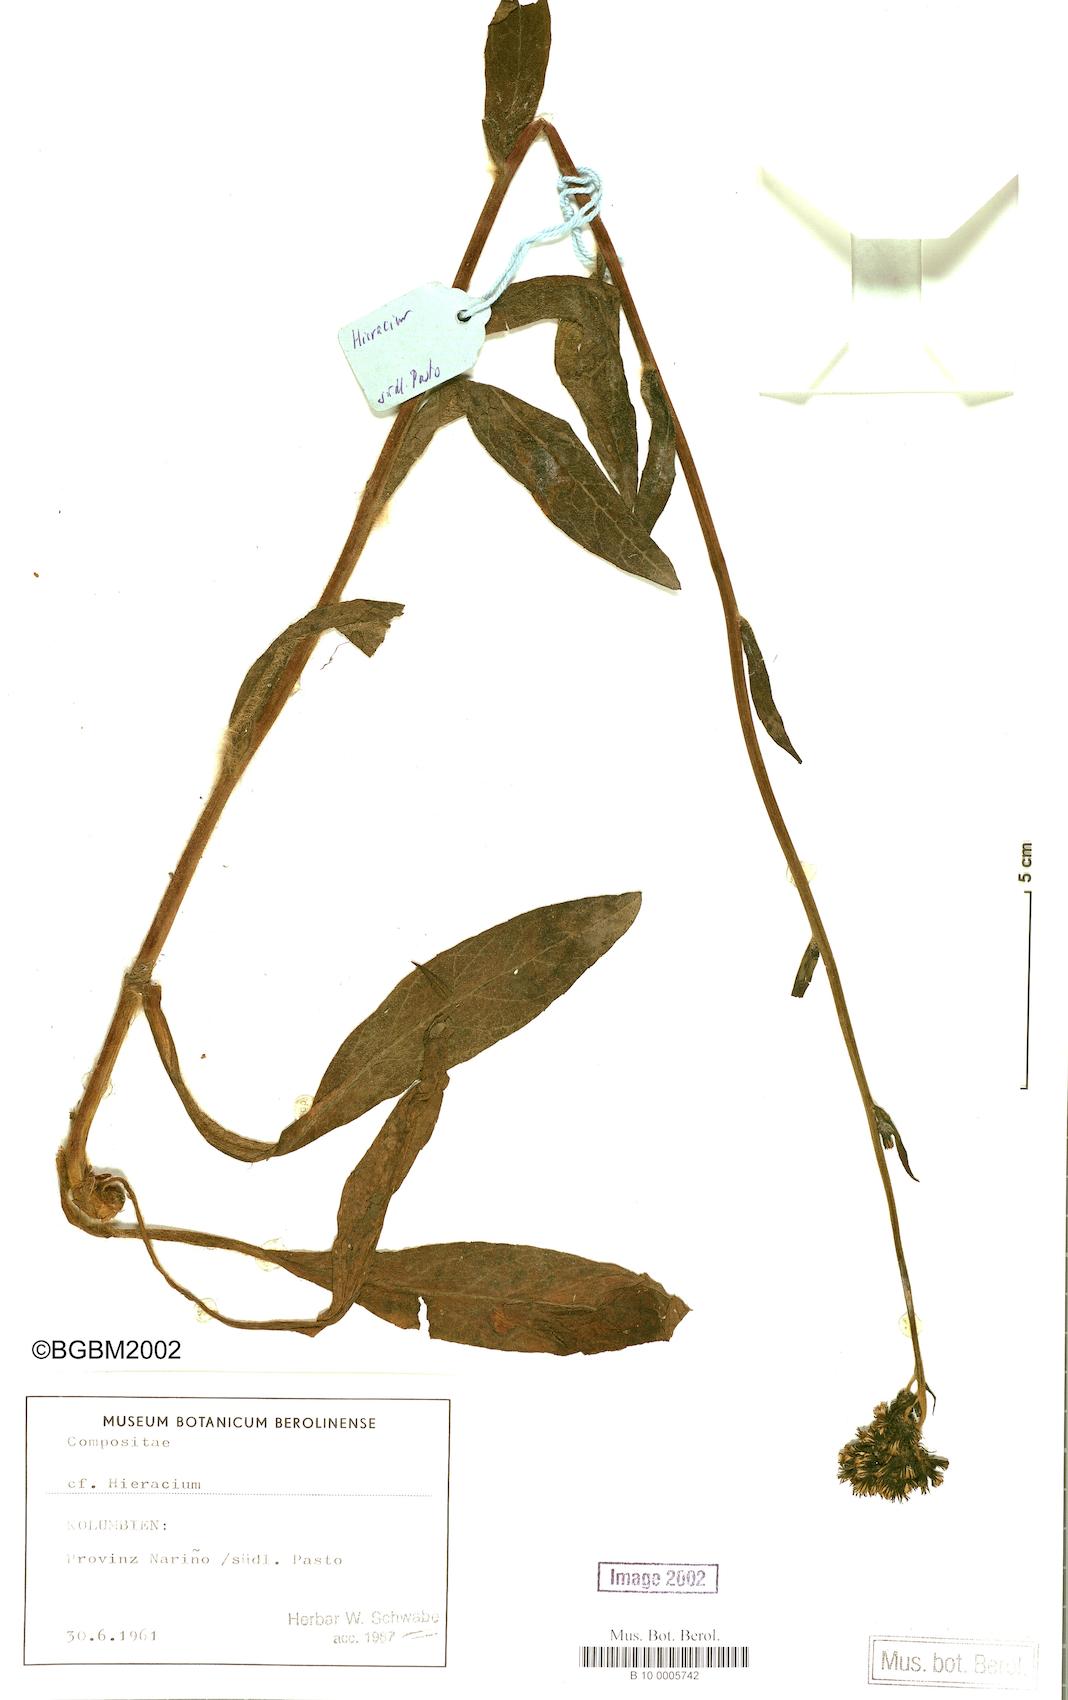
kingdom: Plantae
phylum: Tracheophyta
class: Magnoliopsida
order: Asterales
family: Asteraceae
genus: Hieracium
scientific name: Hieracium leptocephalum
